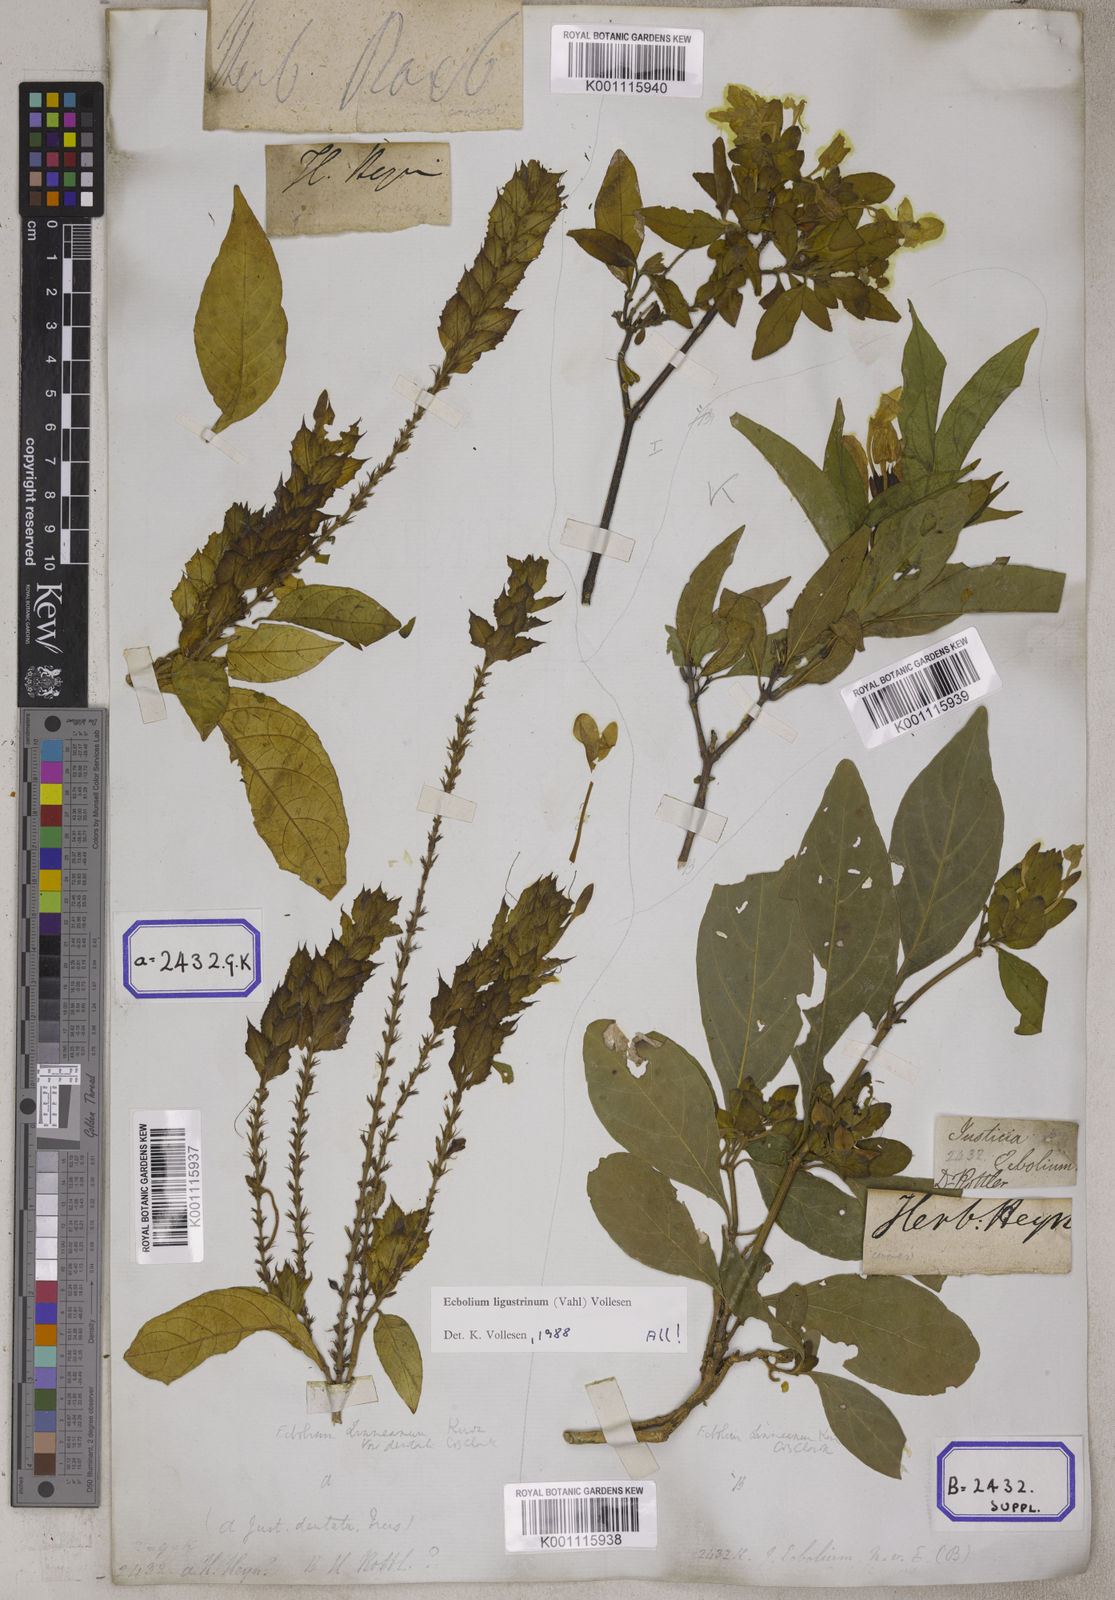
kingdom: Plantae
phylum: Tracheophyta
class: Magnoliopsida
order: Lamiales
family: Acanthaceae
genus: Ecbolium
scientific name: Ecbolium ligustrinum
